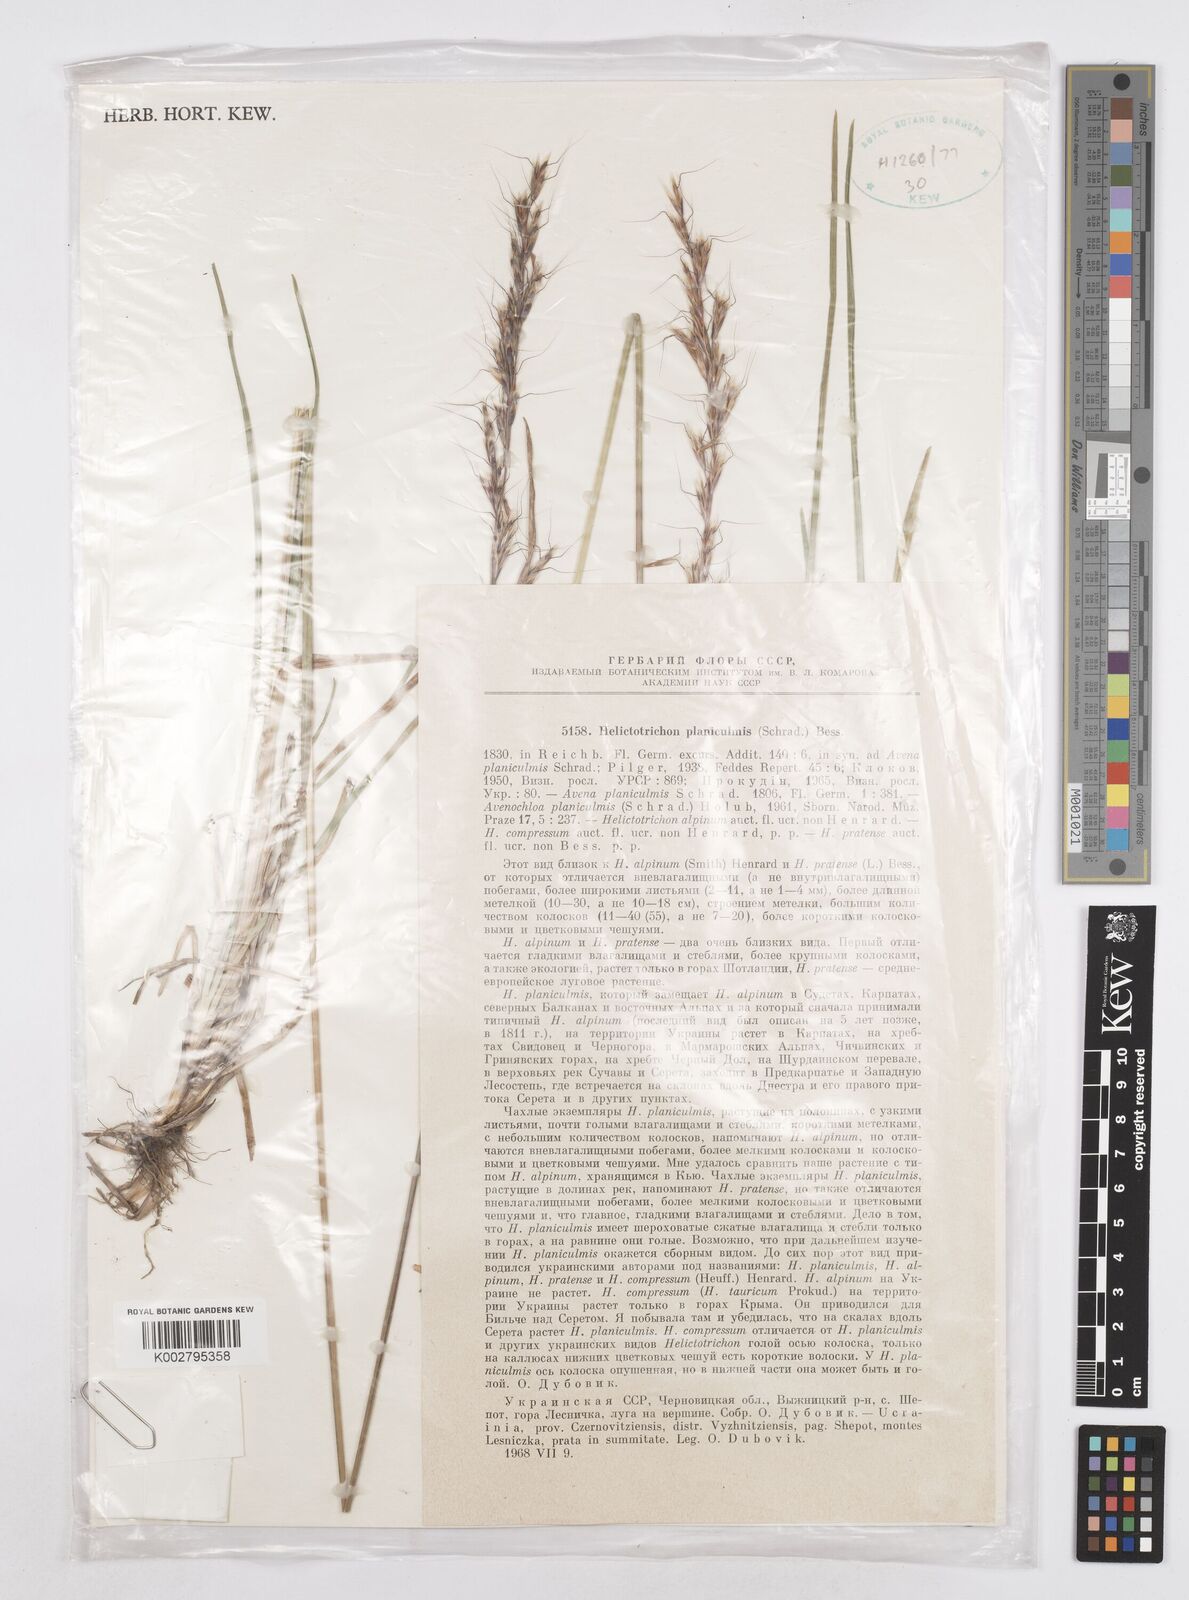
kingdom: Plantae
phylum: Tracheophyta
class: Liliopsida
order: Poales
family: Poaceae
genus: Helictochloa
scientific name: Helictochloa planiculmis
